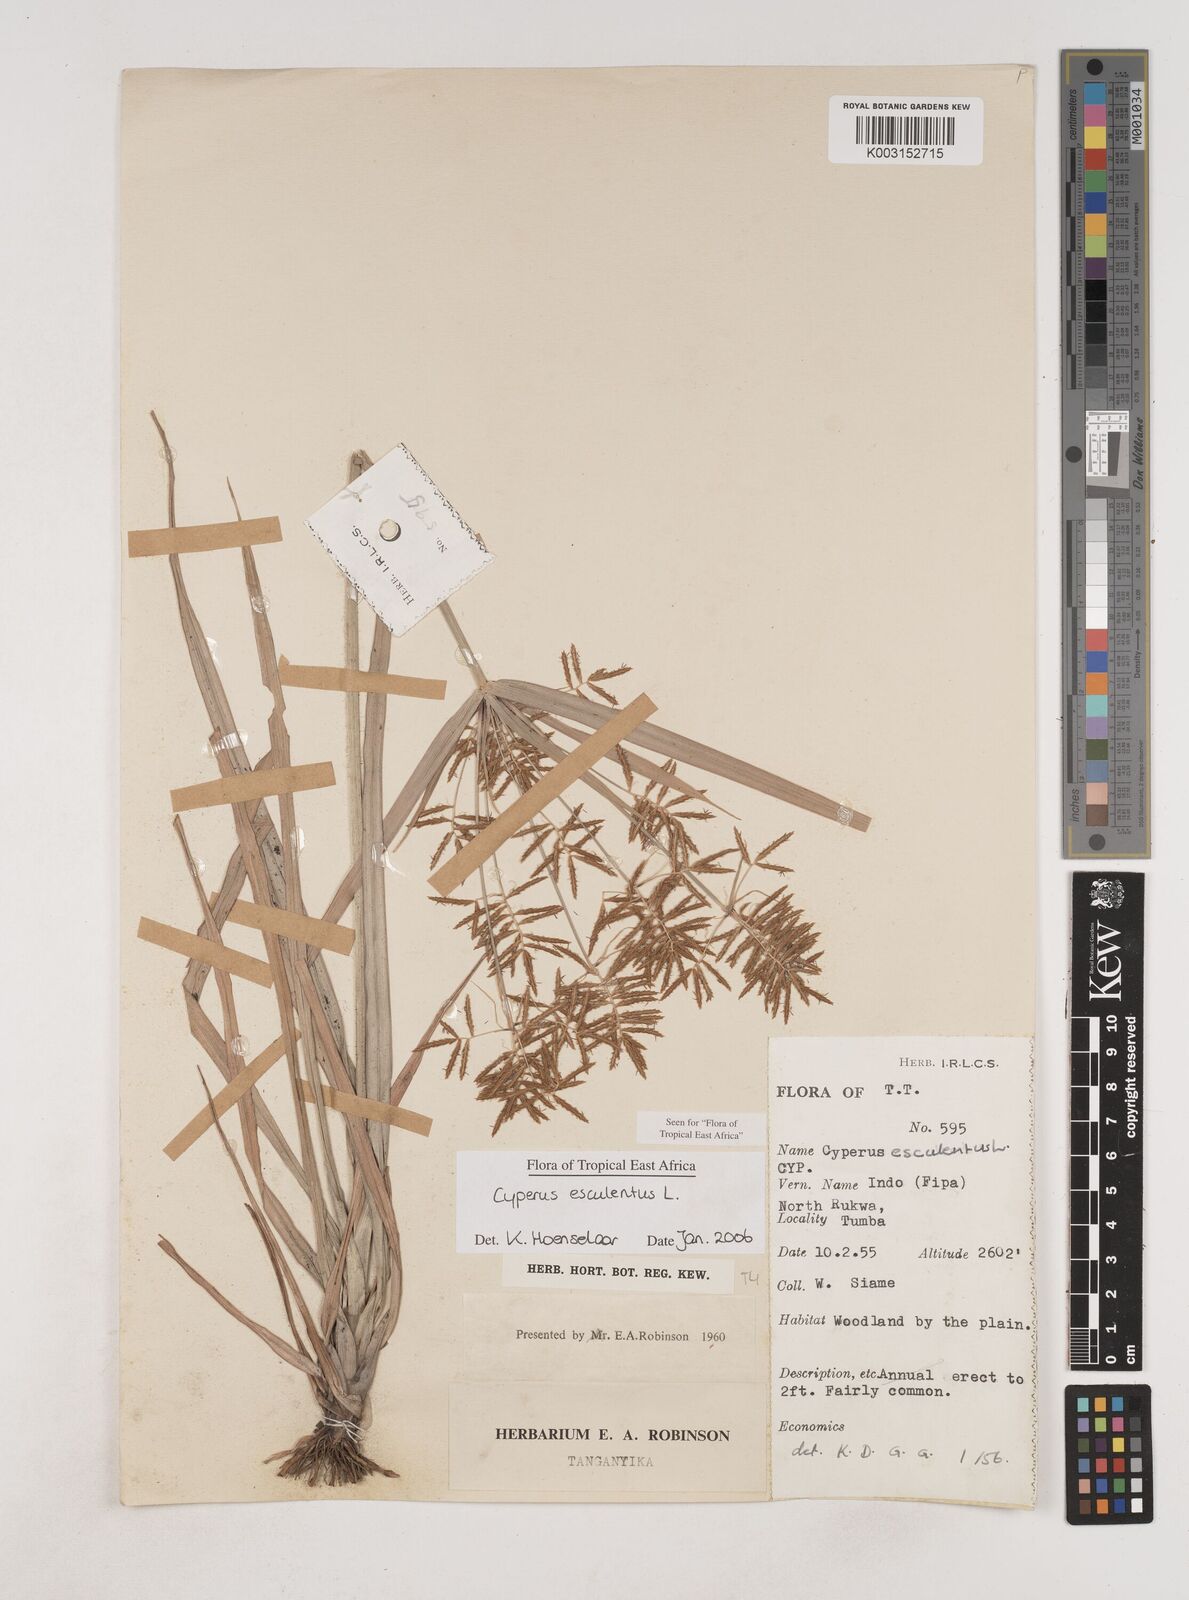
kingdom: Plantae
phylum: Tracheophyta
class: Liliopsida
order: Poales
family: Cyperaceae
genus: Cyperus
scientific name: Cyperus esculentus
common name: Yellow nutsedge
